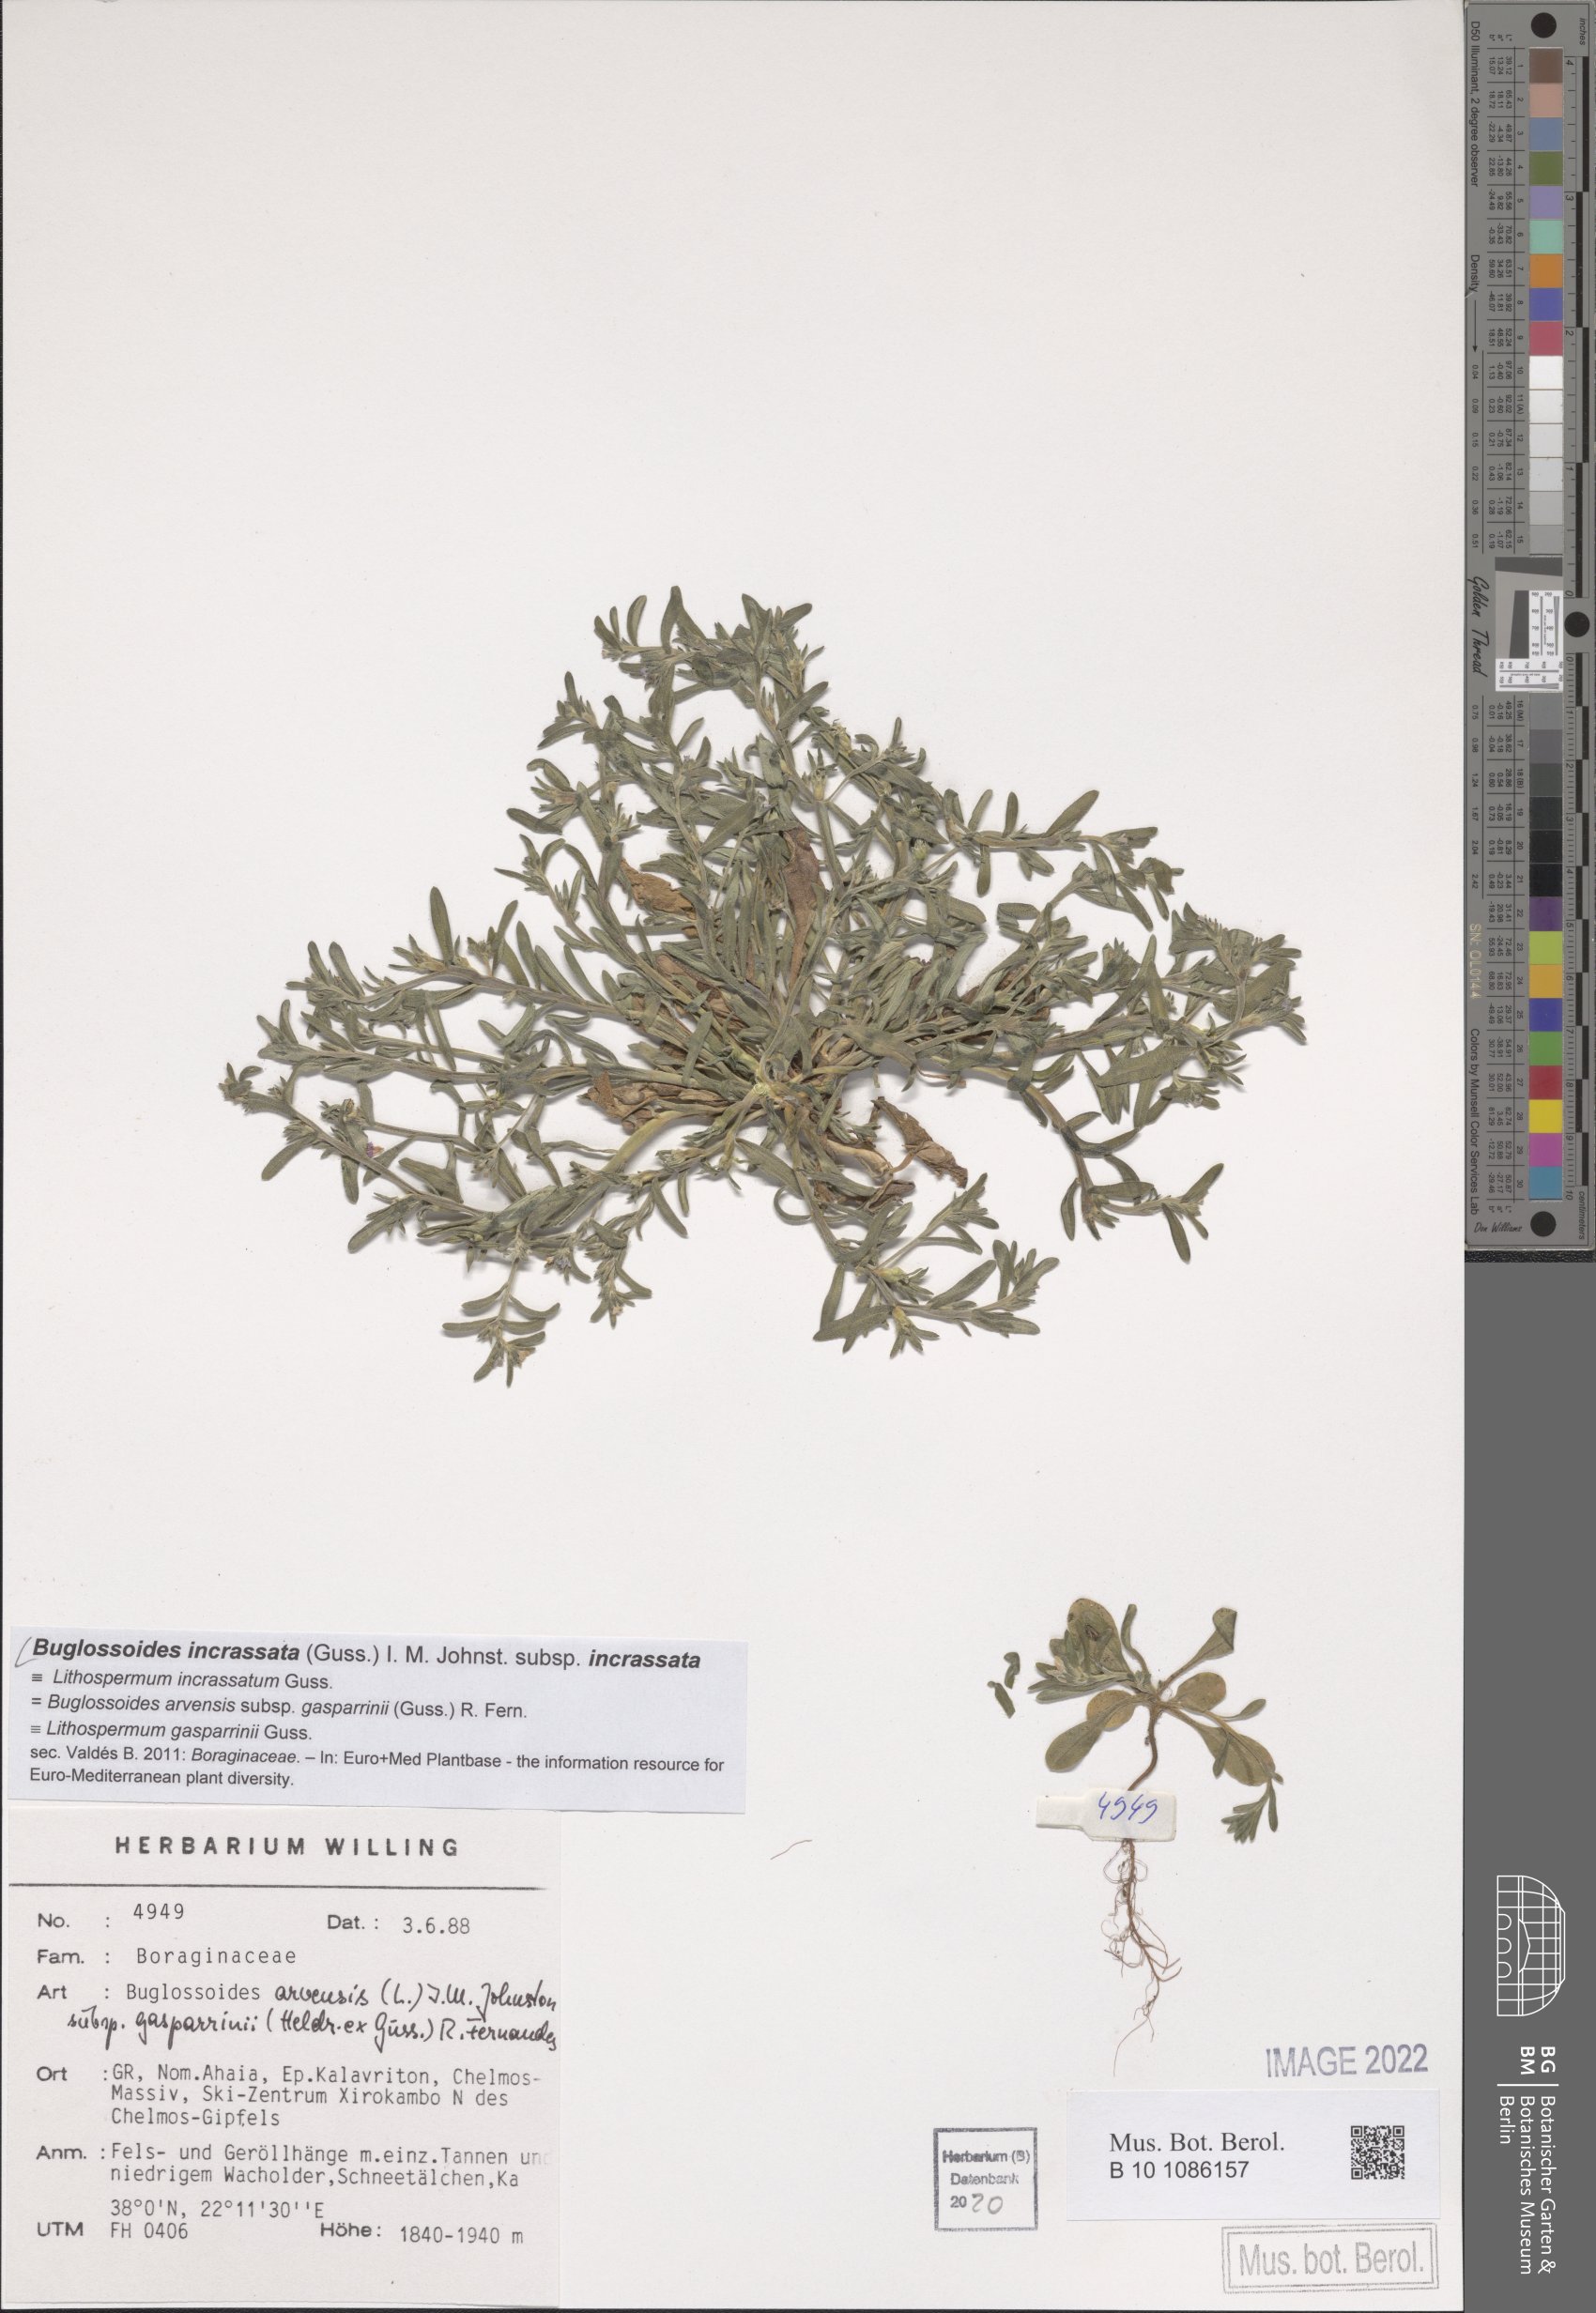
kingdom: Plantae
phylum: Tracheophyta
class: Magnoliopsida
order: Boraginales
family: Boraginaceae
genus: Buglossoides
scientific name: Buglossoides incrassata
